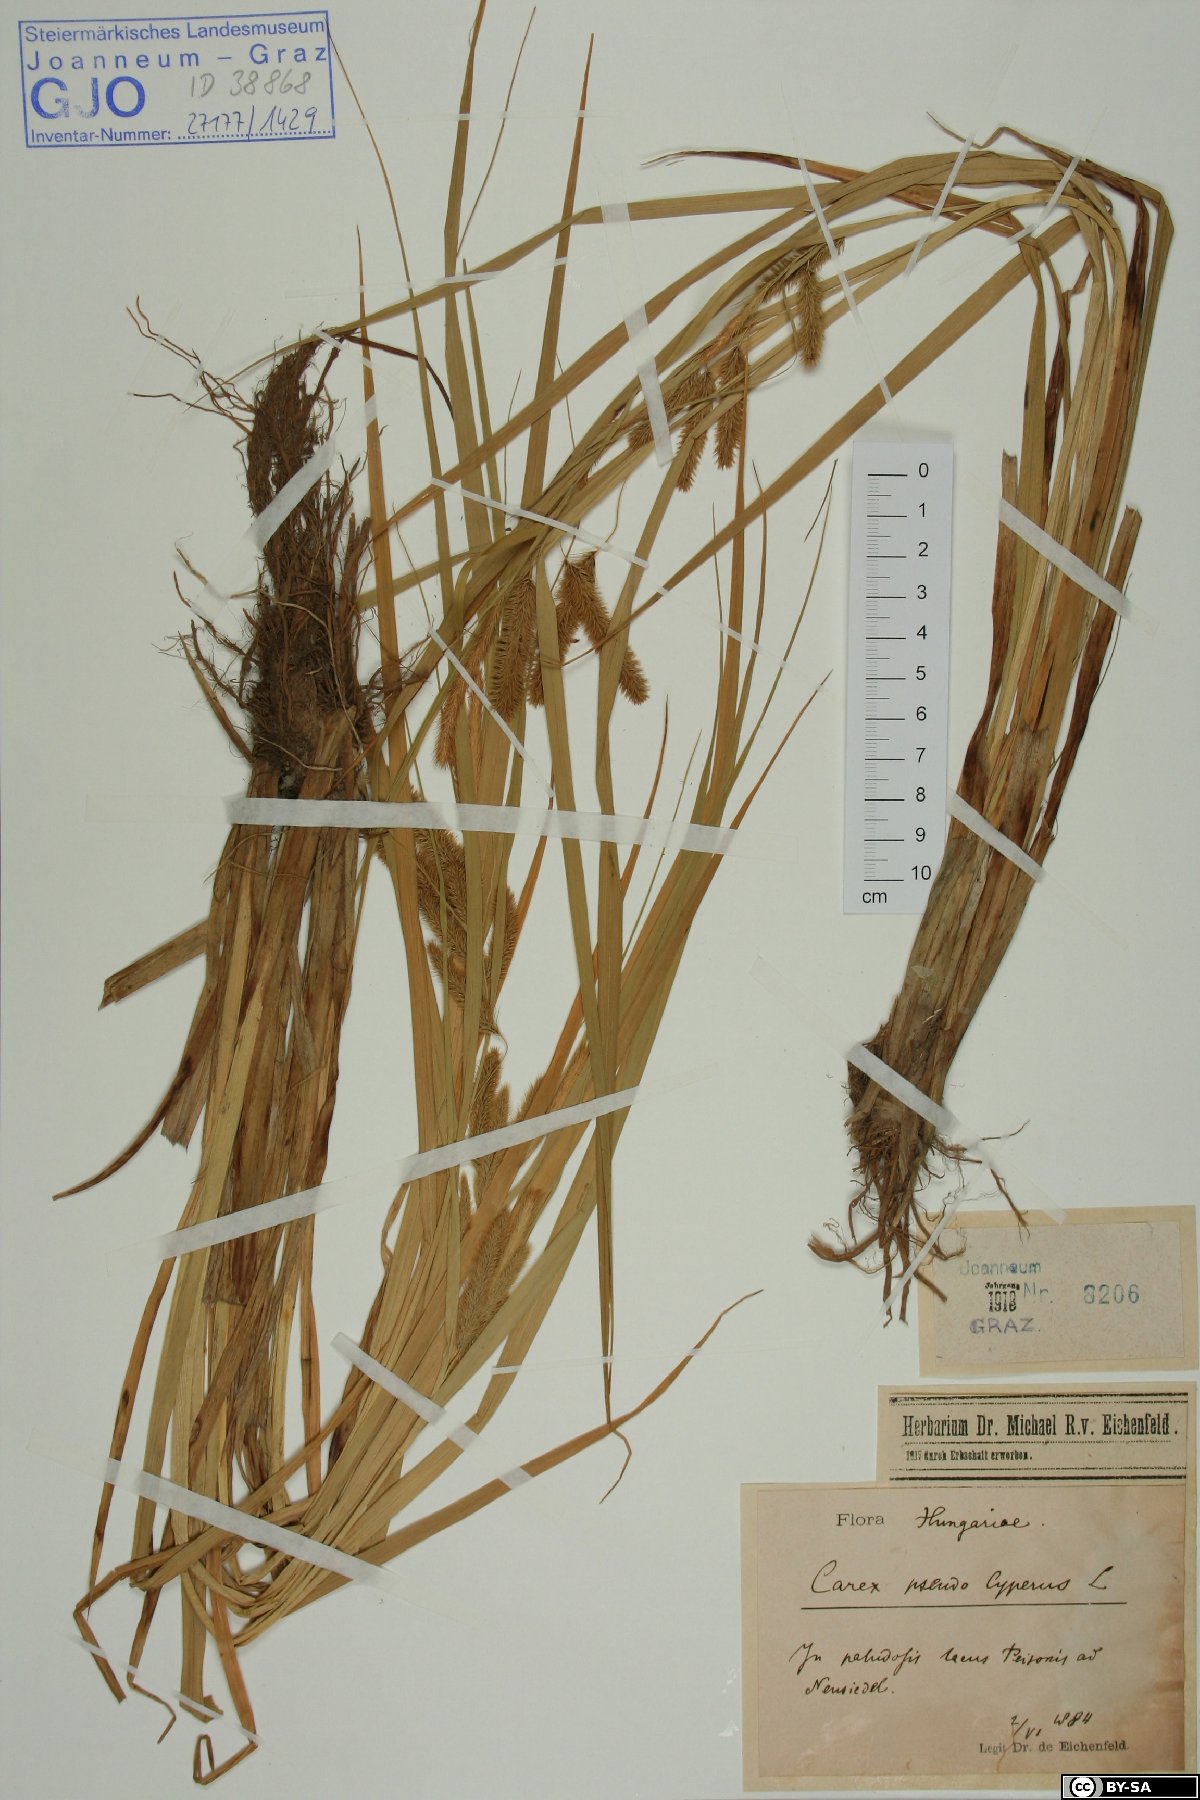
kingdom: Plantae
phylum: Tracheophyta
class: Liliopsida
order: Poales
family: Cyperaceae
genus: Carex
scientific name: Carex pseudocyperus
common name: Cyperus sedge
